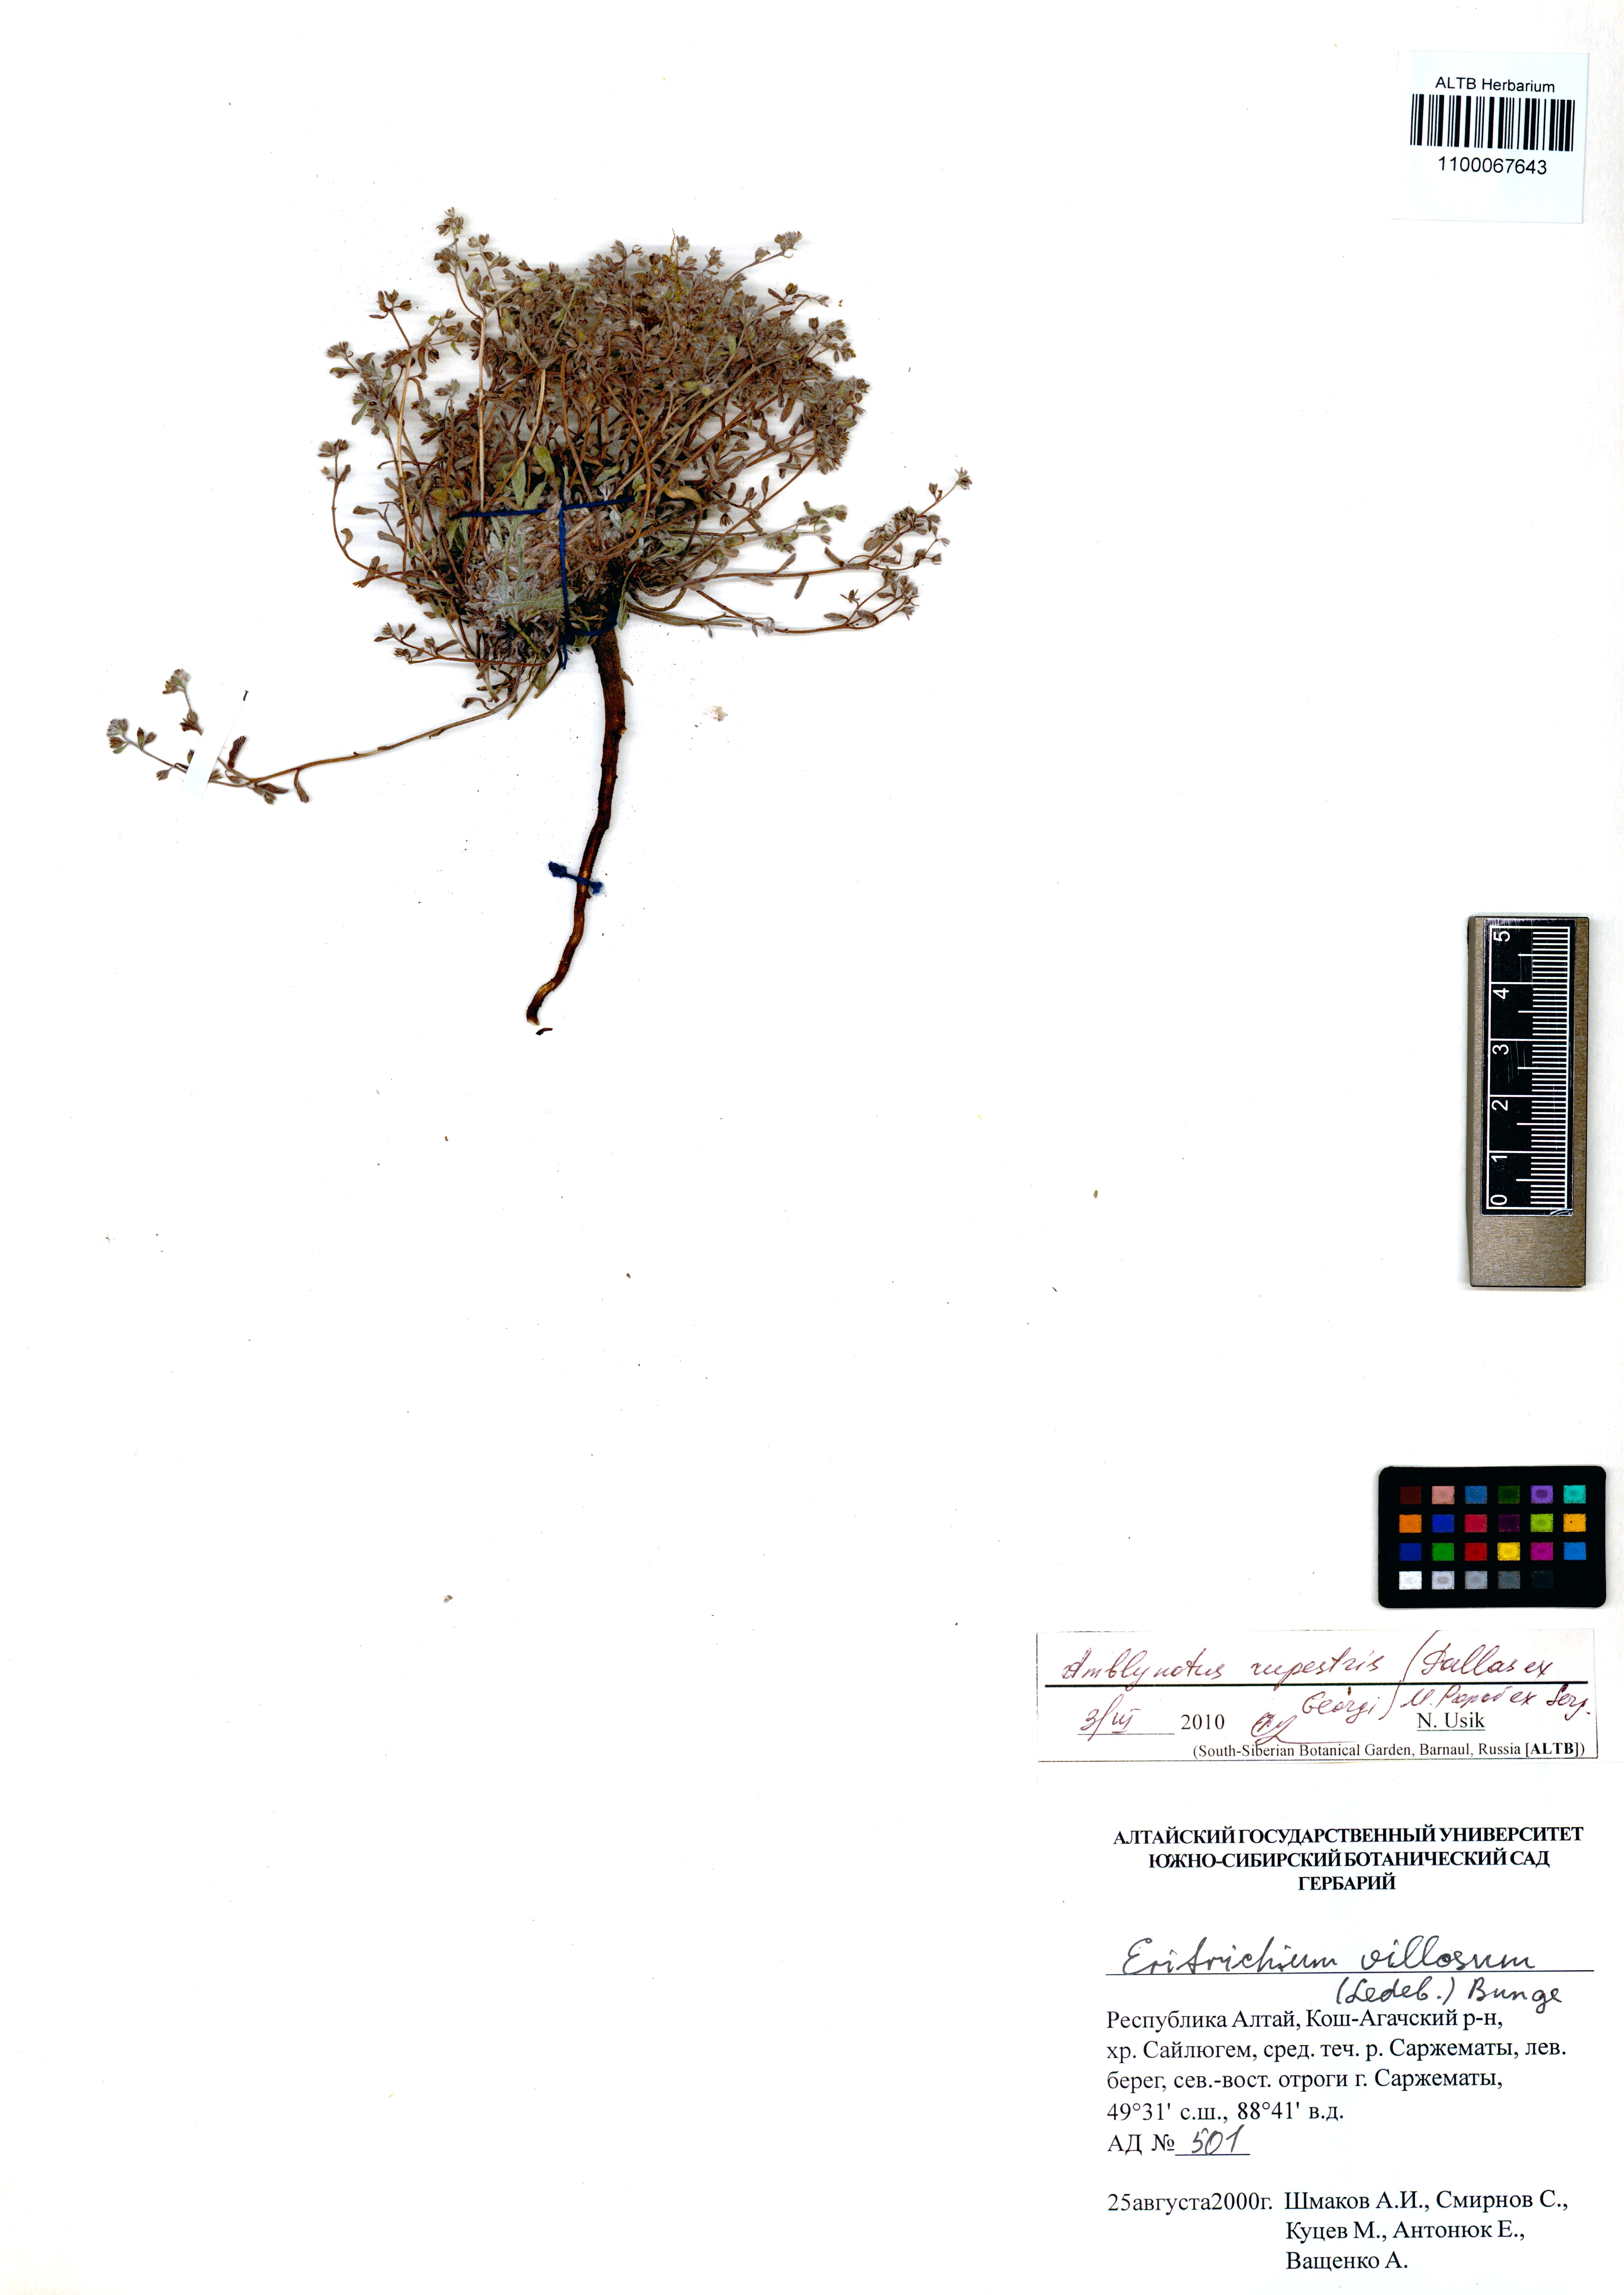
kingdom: Plantae
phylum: Tracheophyta
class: Magnoliopsida
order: Boraginales
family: Boraginaceae
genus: Eritrichium
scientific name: Eritrichium rupestre
